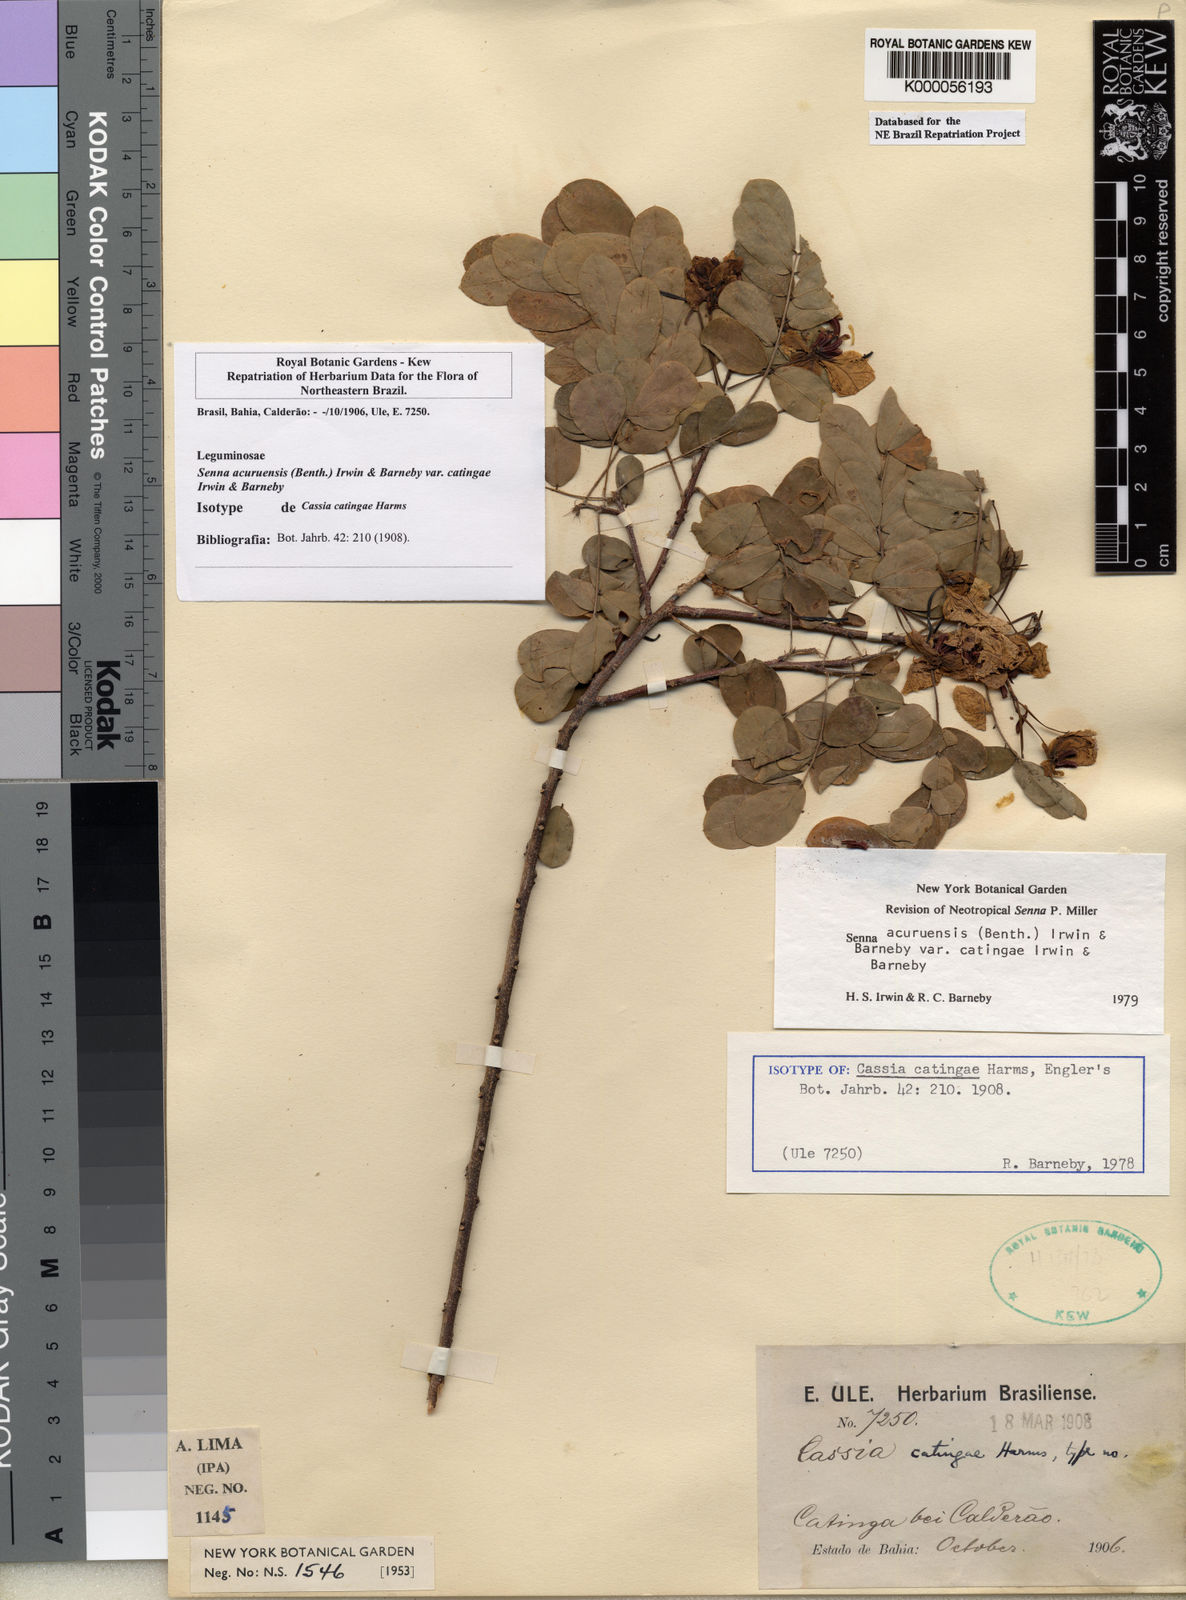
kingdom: Plantae
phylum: Tracheophyta
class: Magnoliopsida
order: Fabales
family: Fabaceae
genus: Senna
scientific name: Senna catingae
